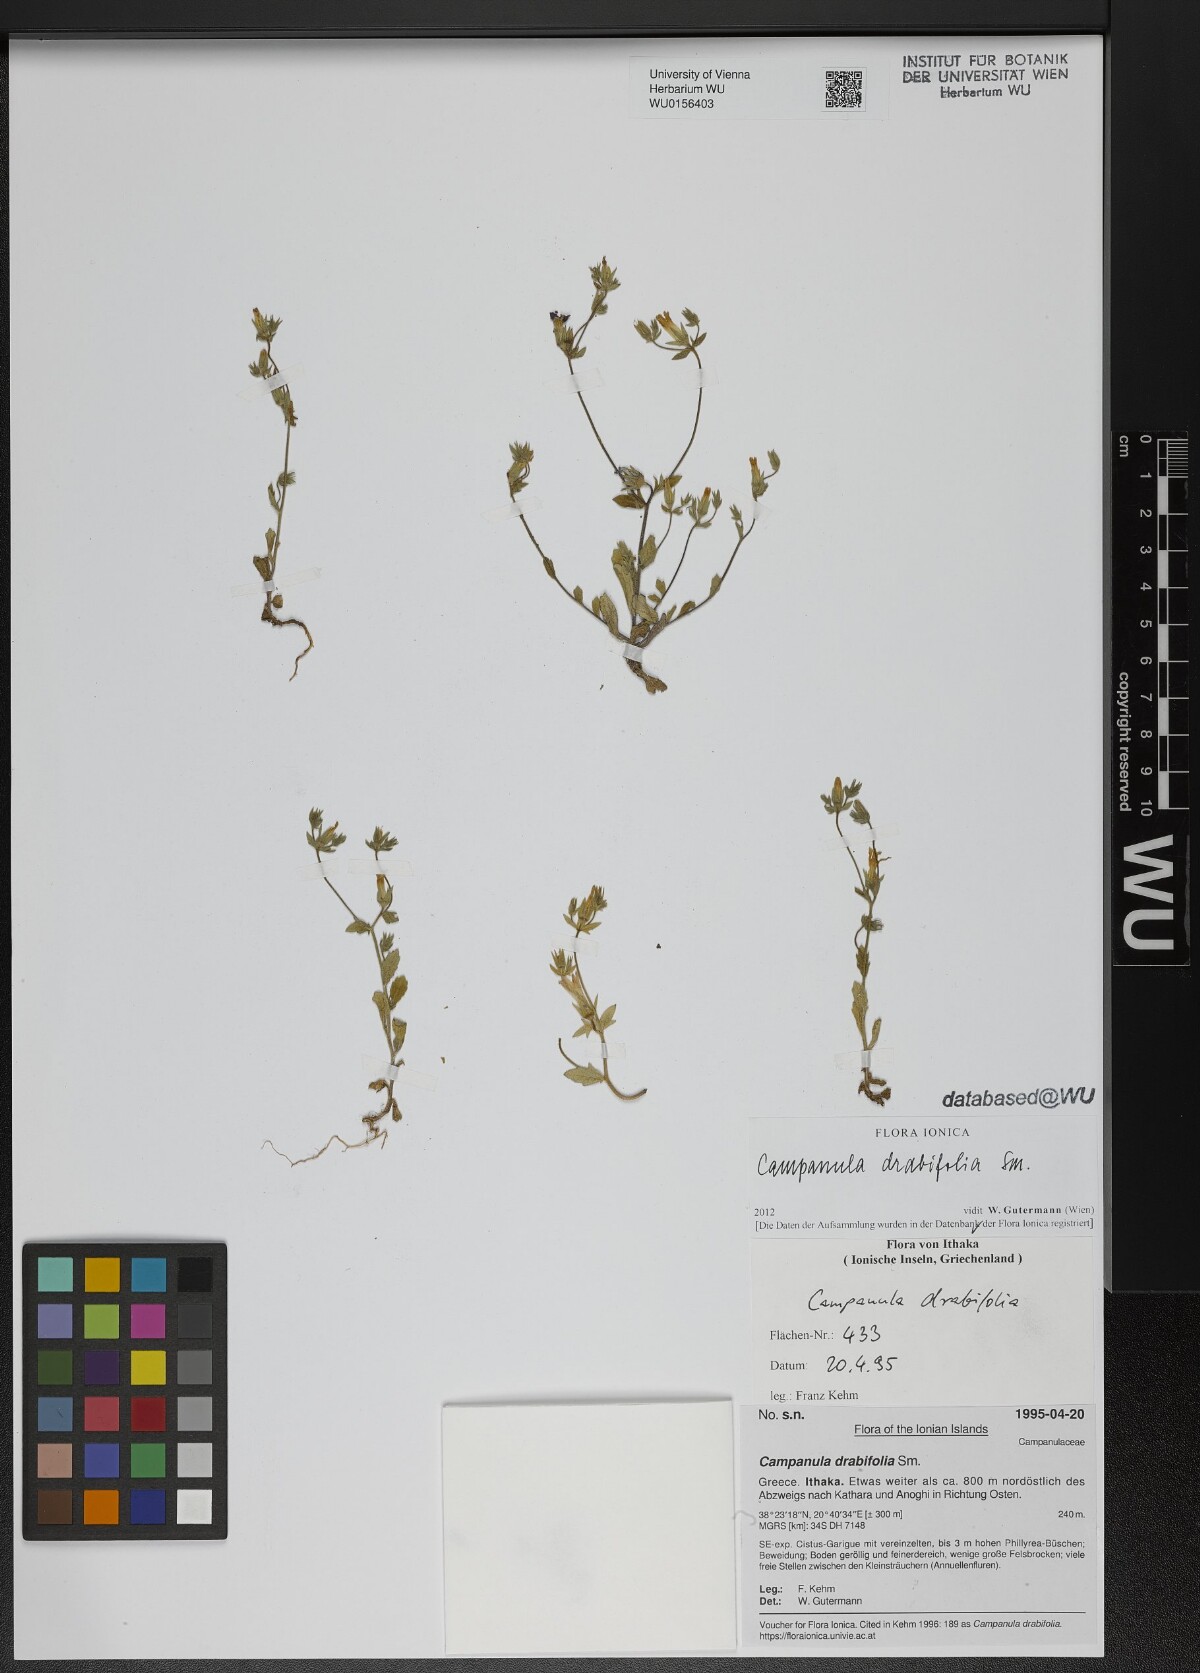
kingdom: Plantae
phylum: Tracheophyta
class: Magnoliopsida
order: Asterales
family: Campanulaceae
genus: Campanula
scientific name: Campanula drabifolia
